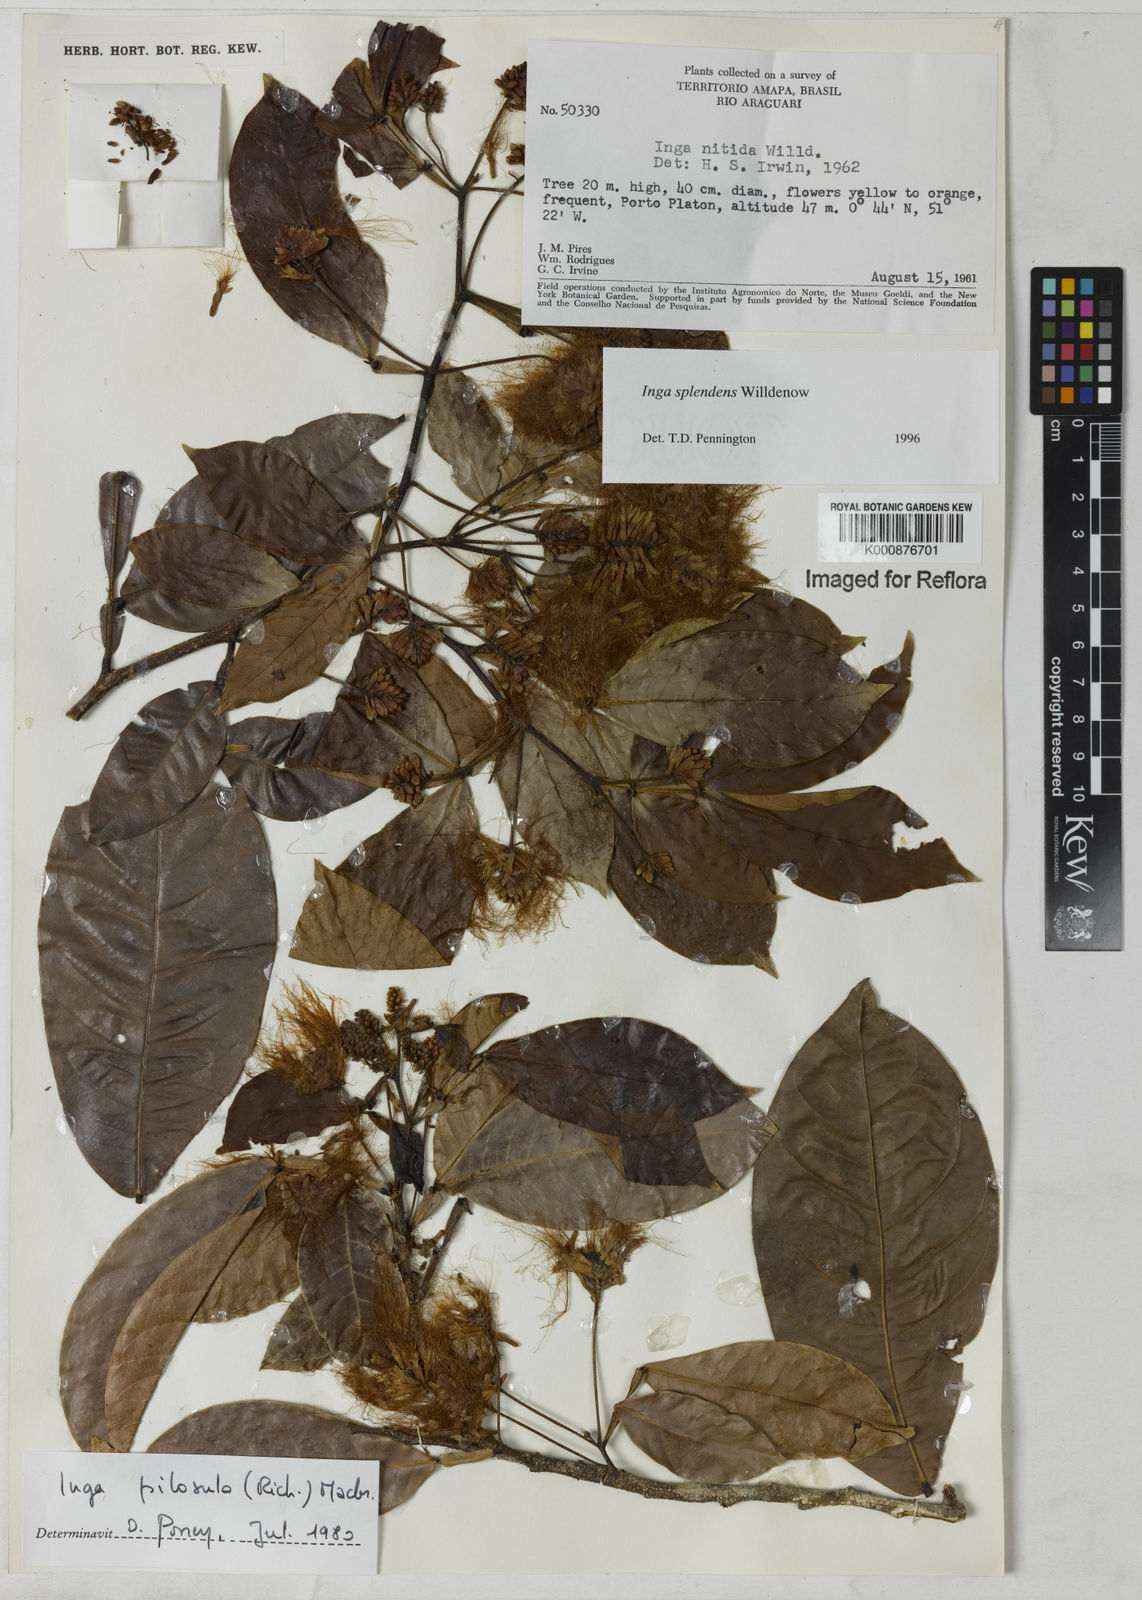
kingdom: Plantae
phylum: Tracheophyta
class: Magnoliopsida
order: Fabales
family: Fabaceae
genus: Inga
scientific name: Inga splendens
